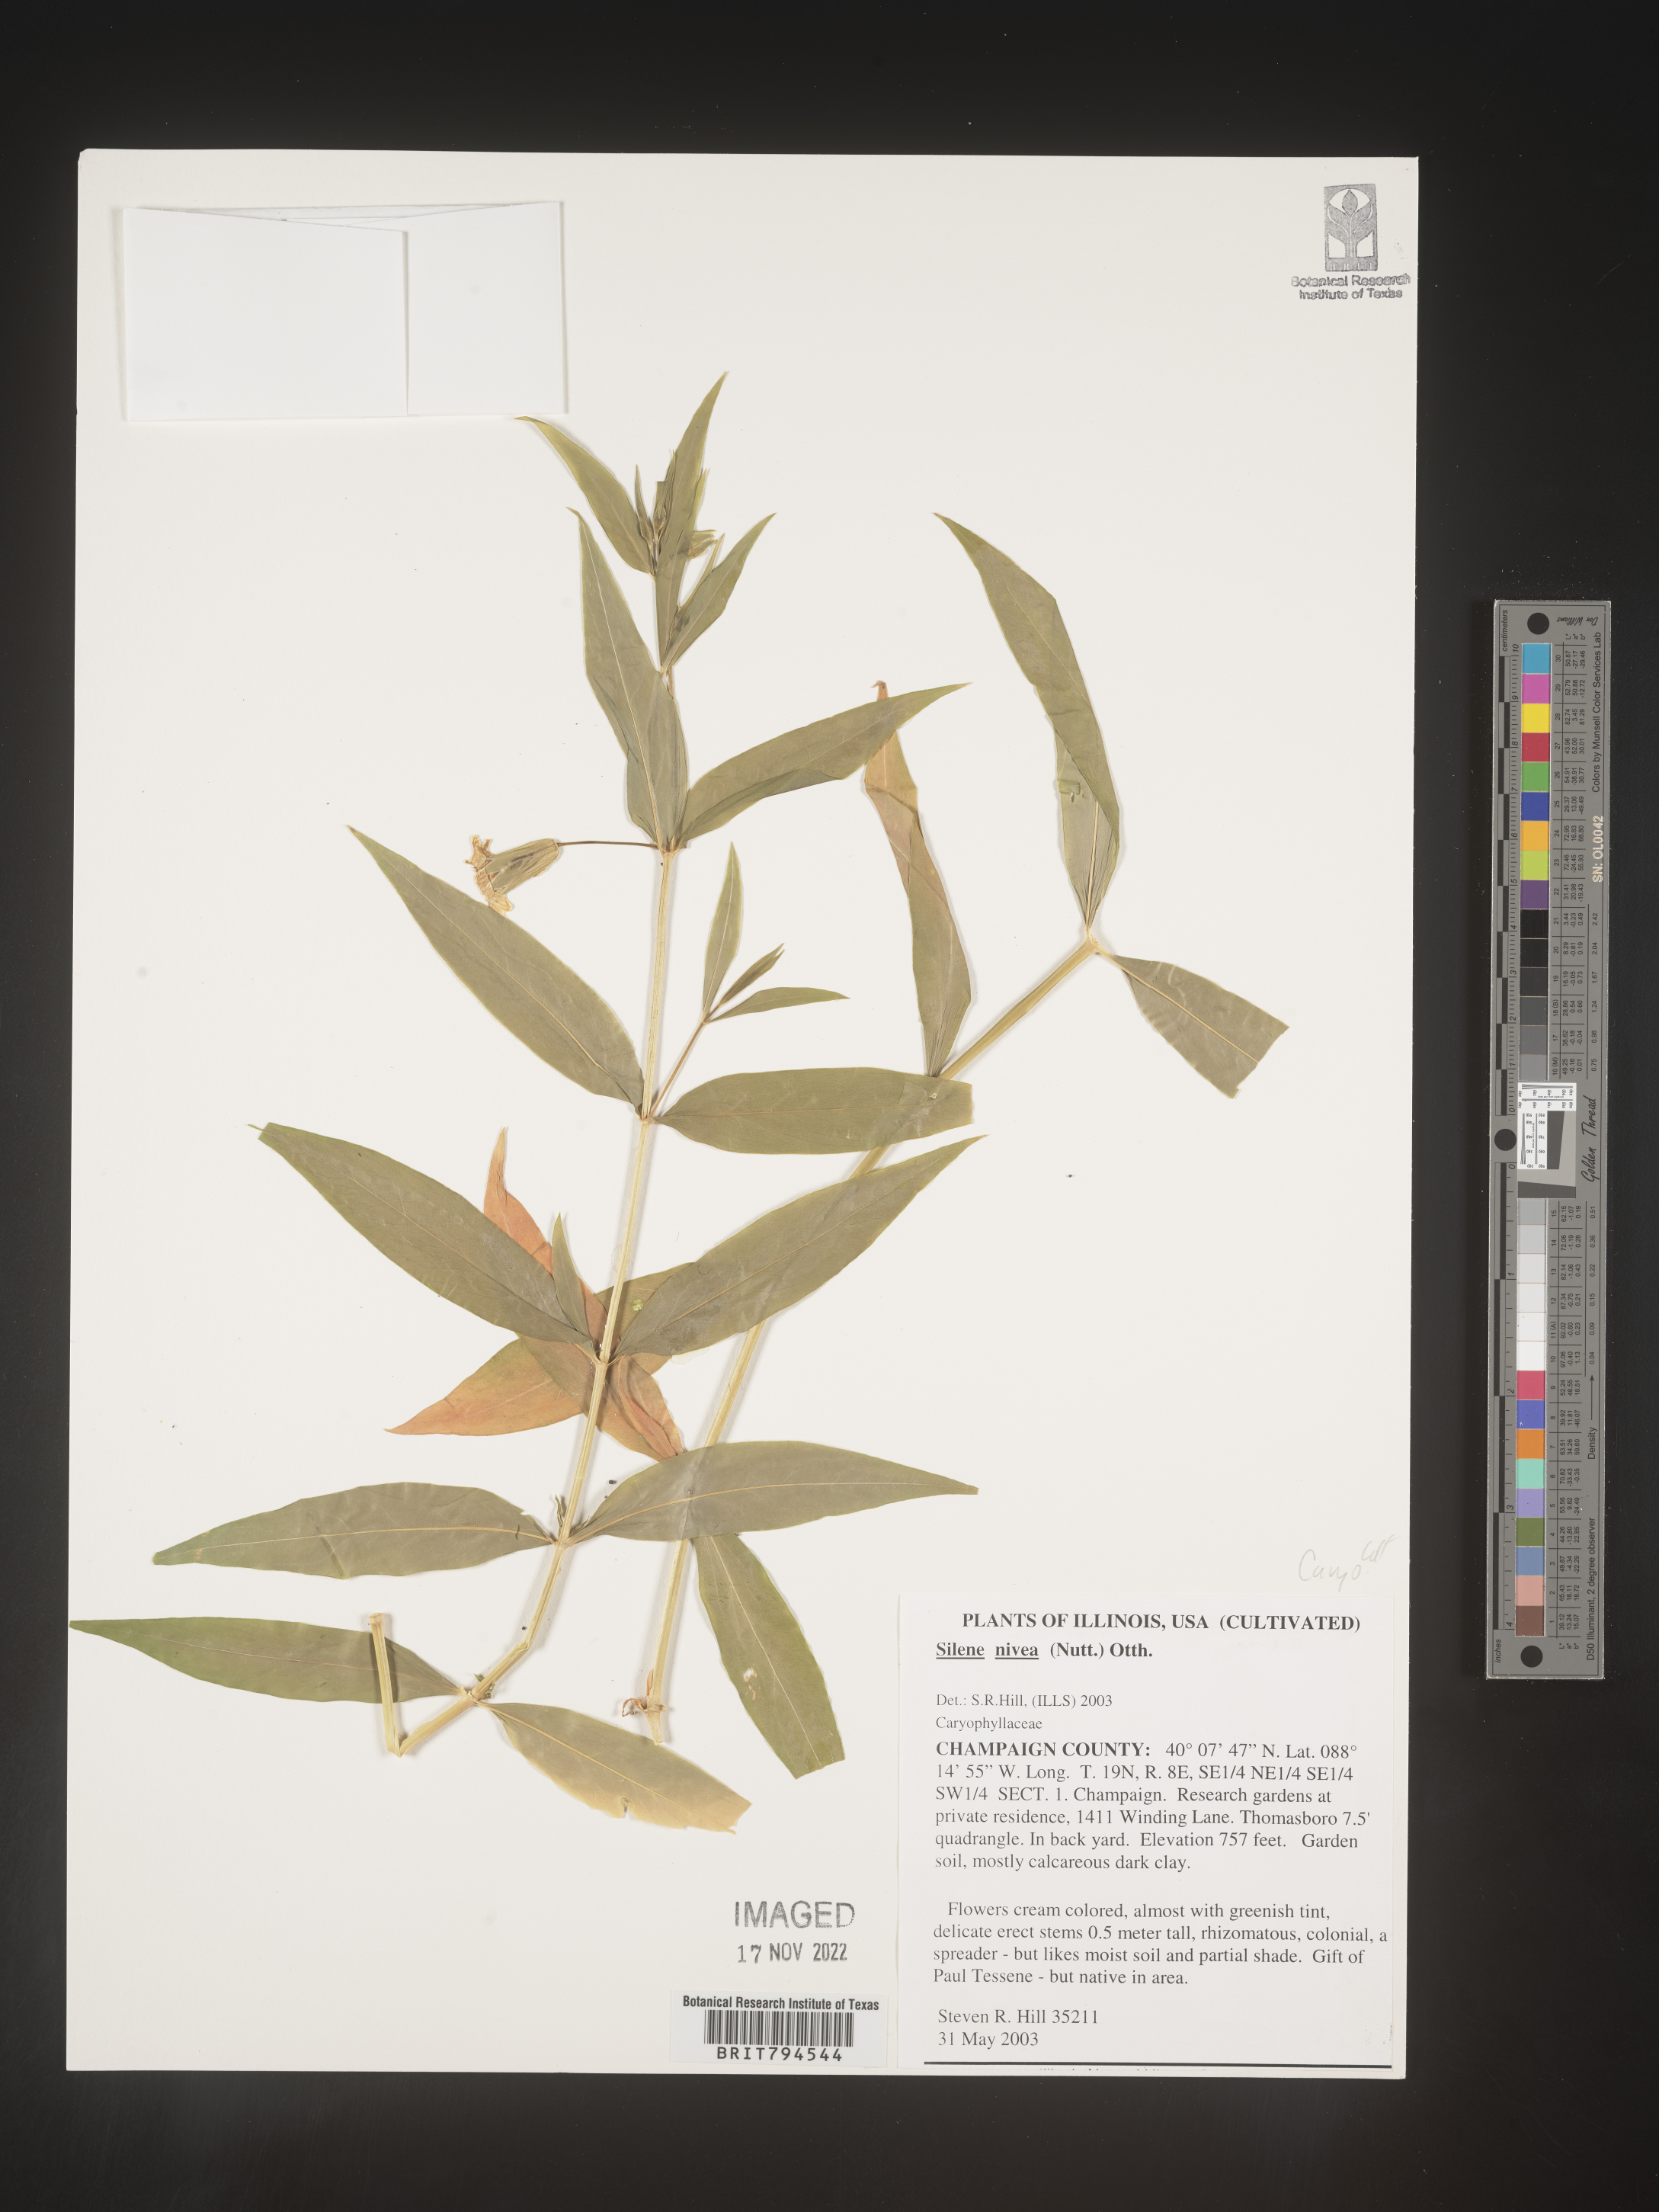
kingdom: Plantae
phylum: Tracheophyta
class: Magnoliopsida
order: Caryophyllales
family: Caryophyllaceae
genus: Silene
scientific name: Silene nivea
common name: Snowy campion
